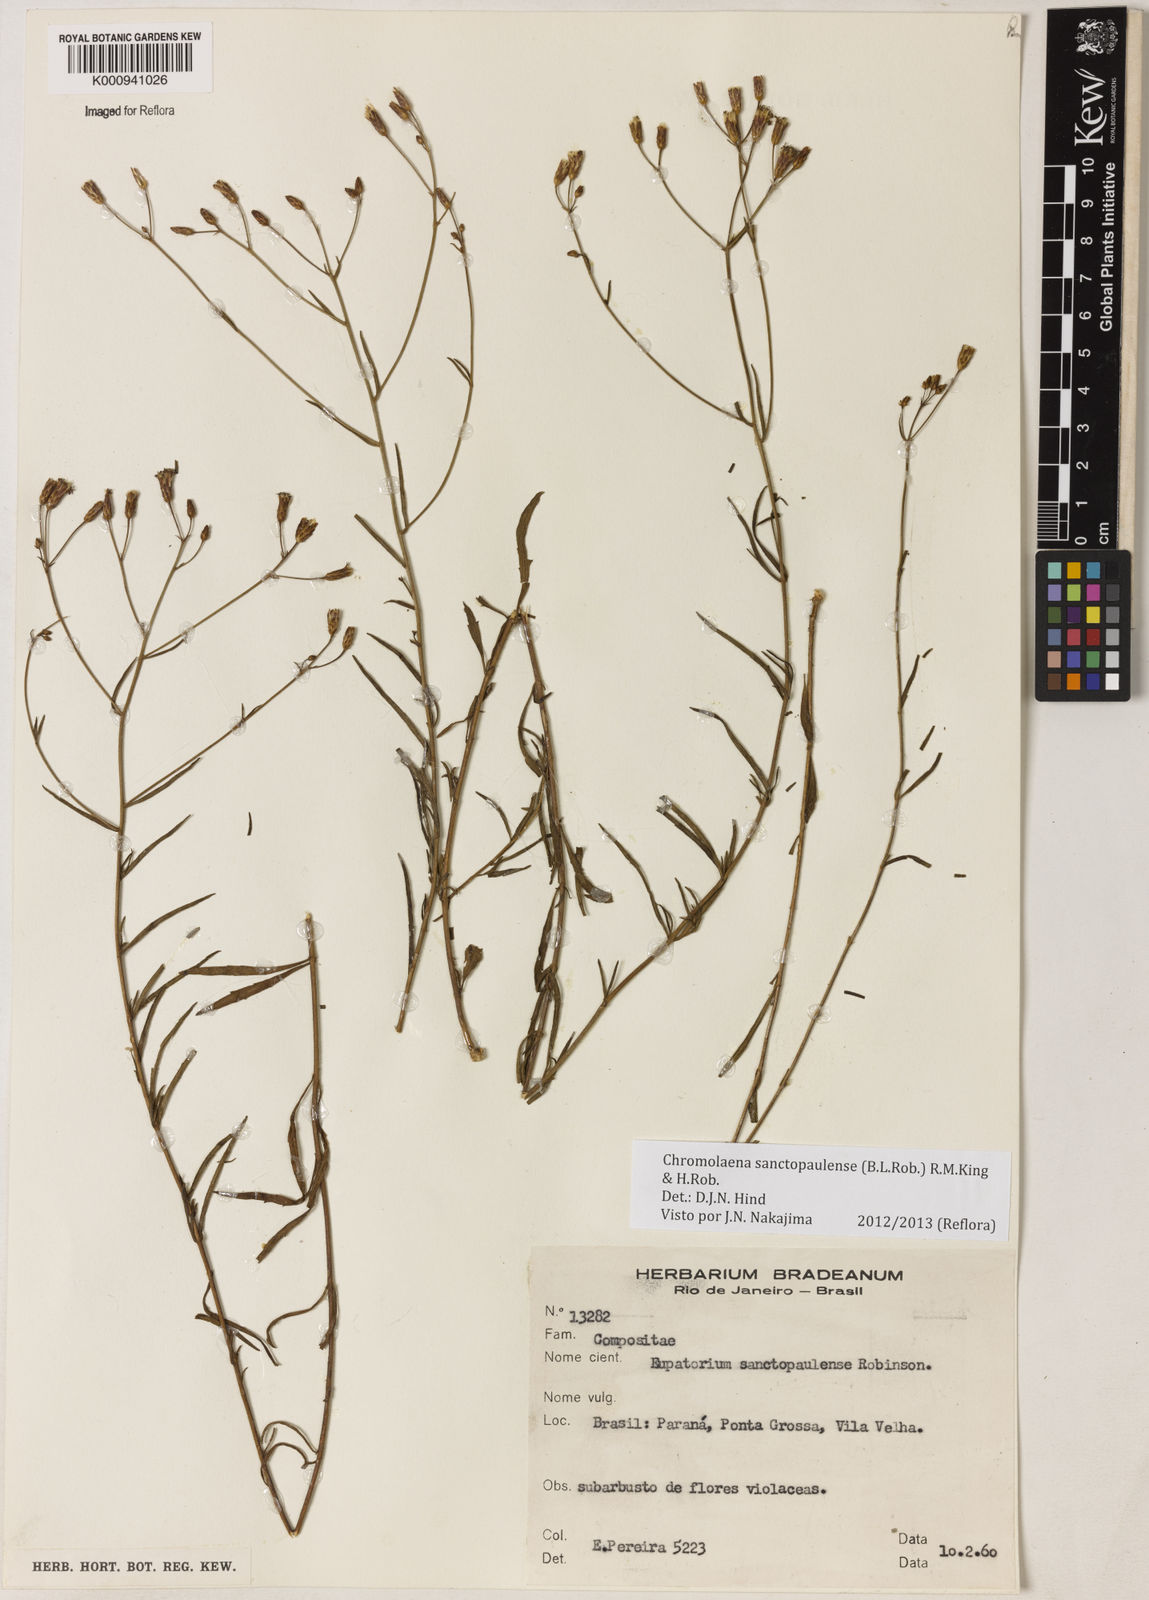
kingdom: Plantae
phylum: Tracheophyta
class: Magnoliopsida
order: Asterales
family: Asteraceae
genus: Chromolaena
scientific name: Chromolaena
